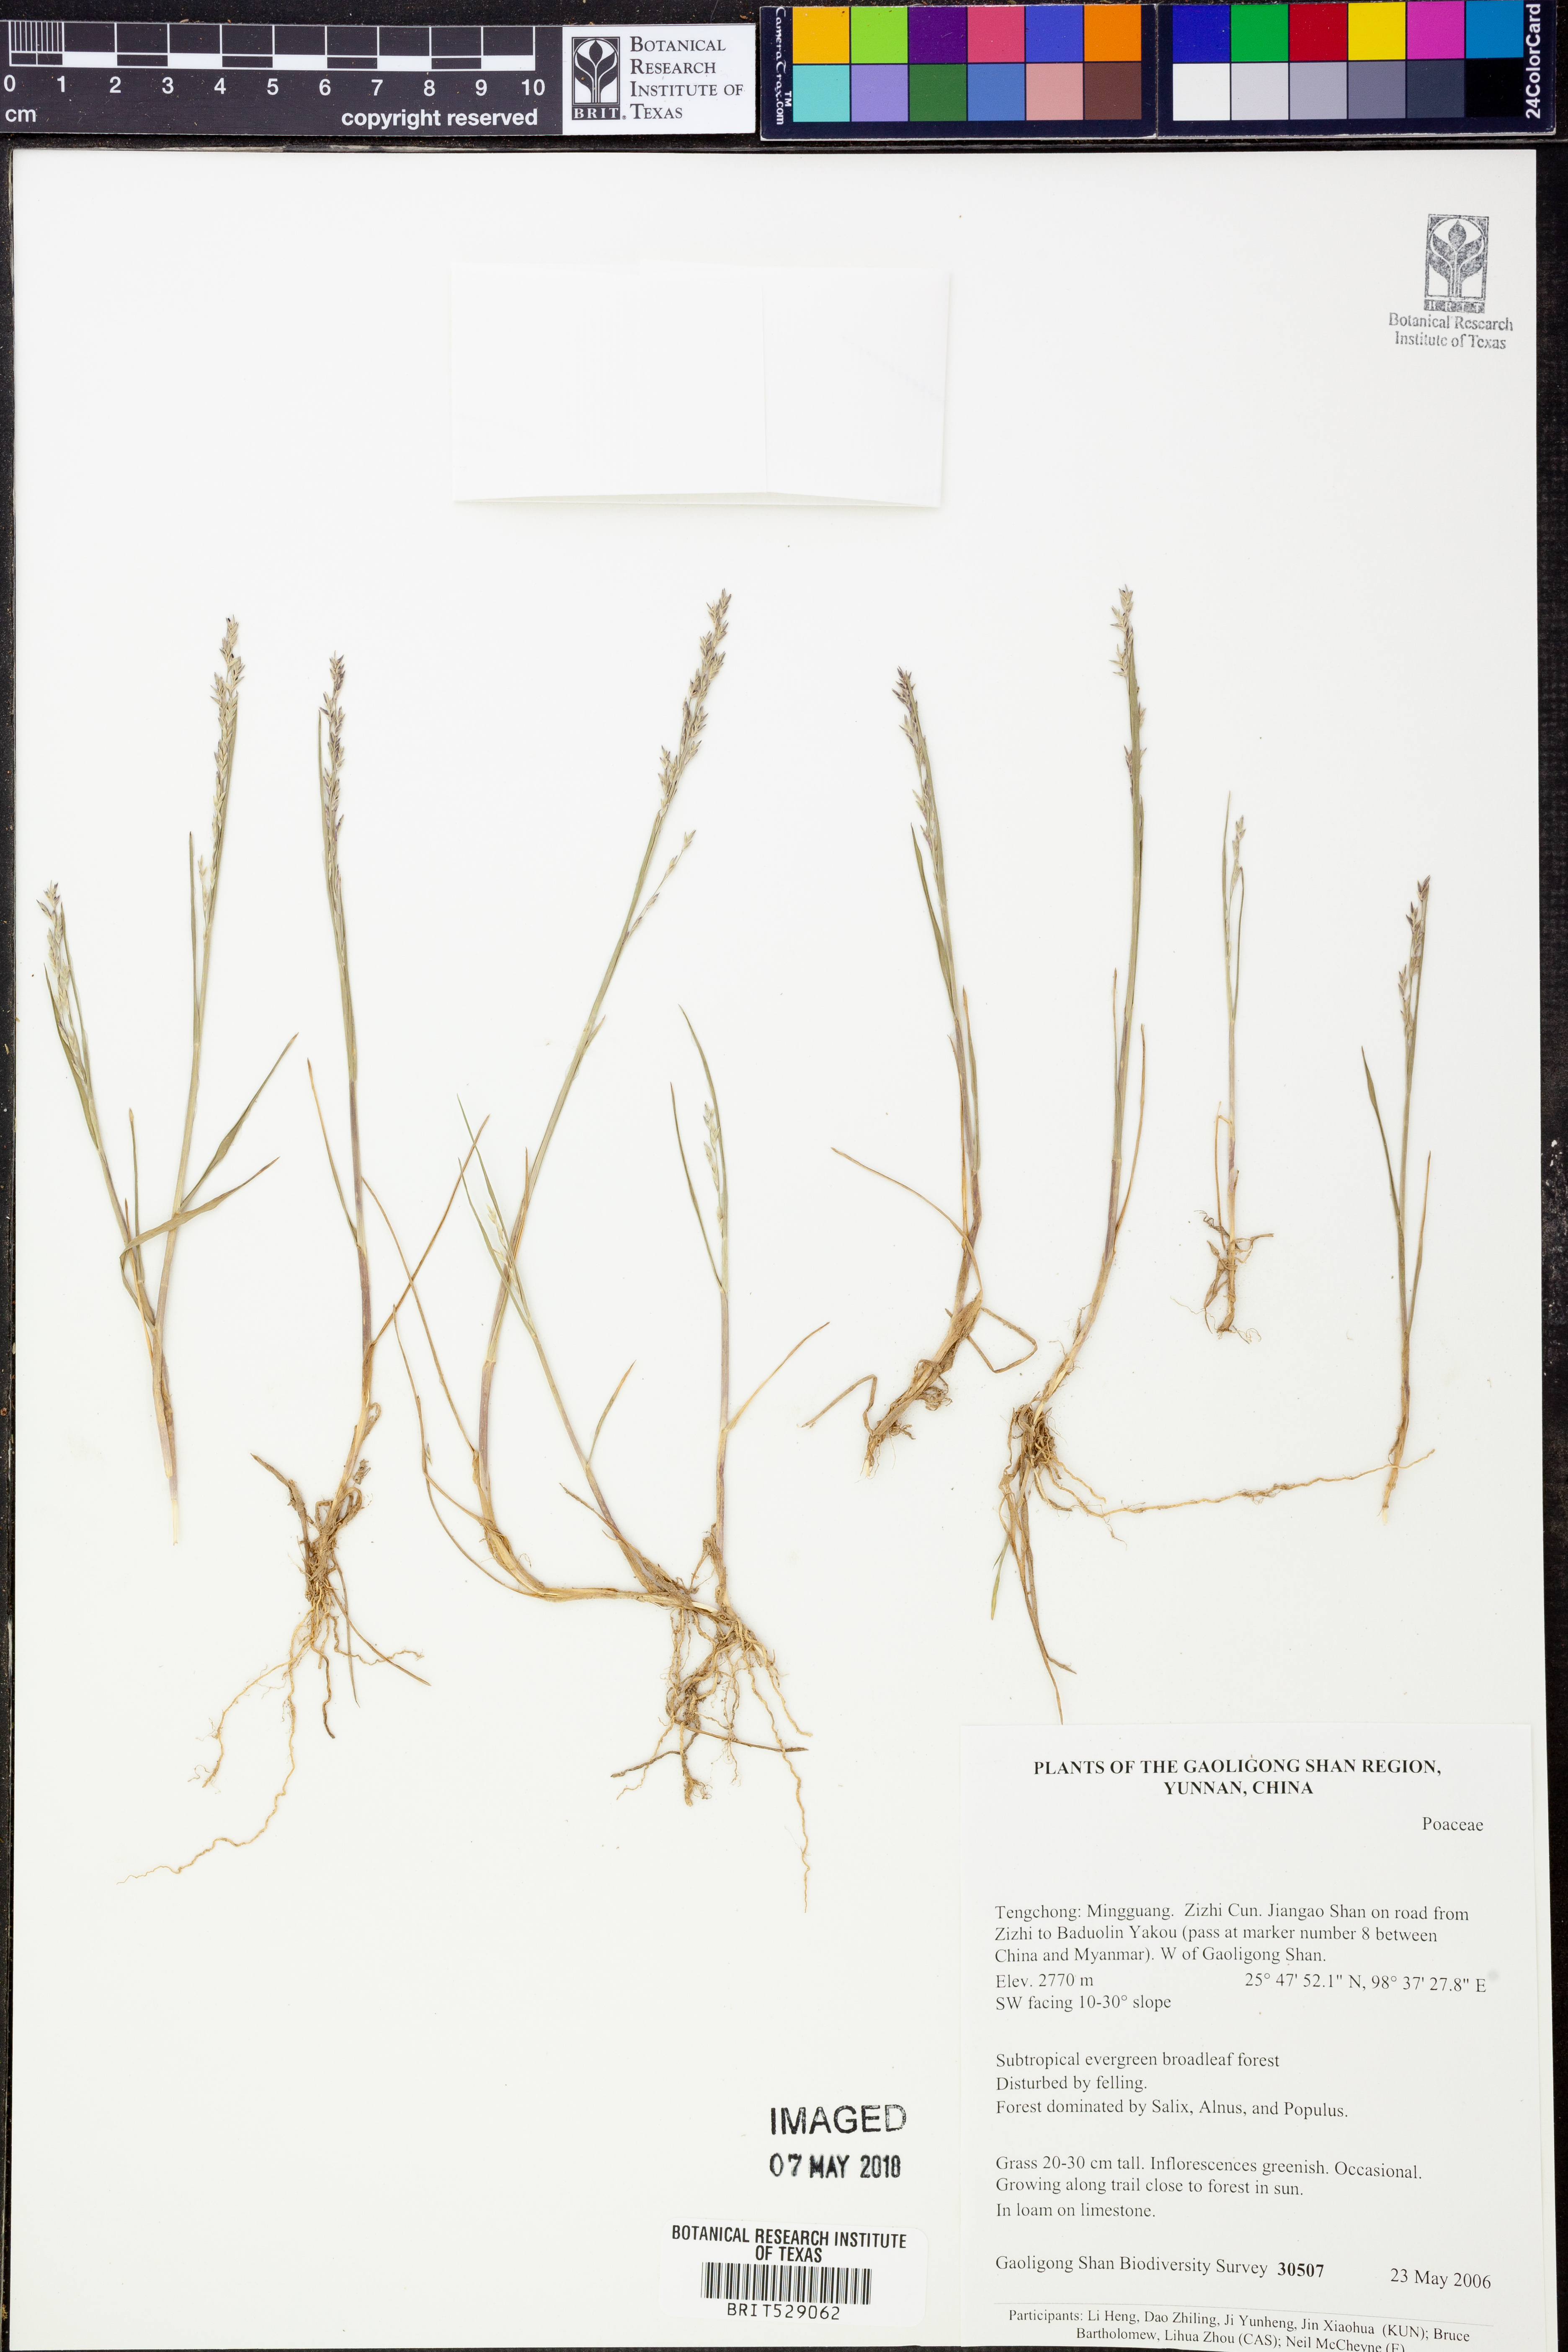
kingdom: Plantae
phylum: Tracheophyta
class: Liliopsida
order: Poales
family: Poaceae
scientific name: Poaceae
